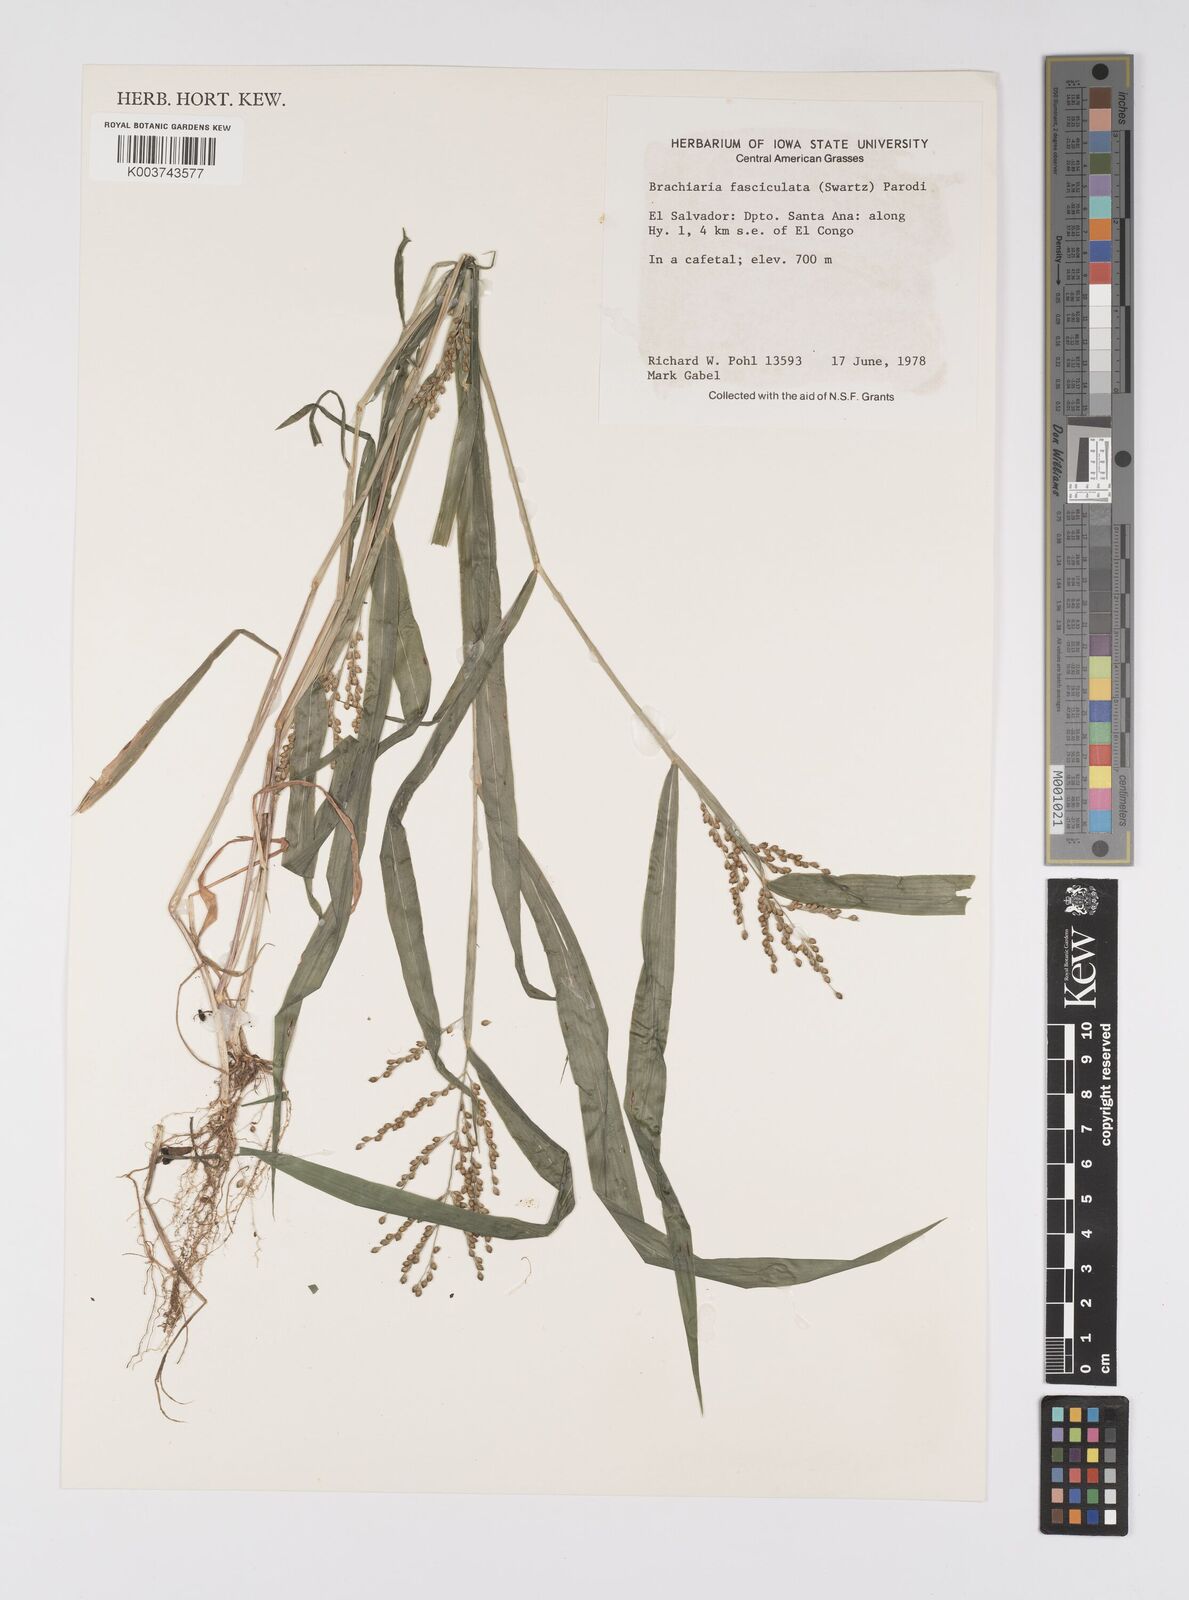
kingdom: Plantae
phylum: Tracheophyta
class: Liliopsida
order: Poales
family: Poaceae
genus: Urochloa
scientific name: Urochloa fusca
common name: Browntop signal grass
